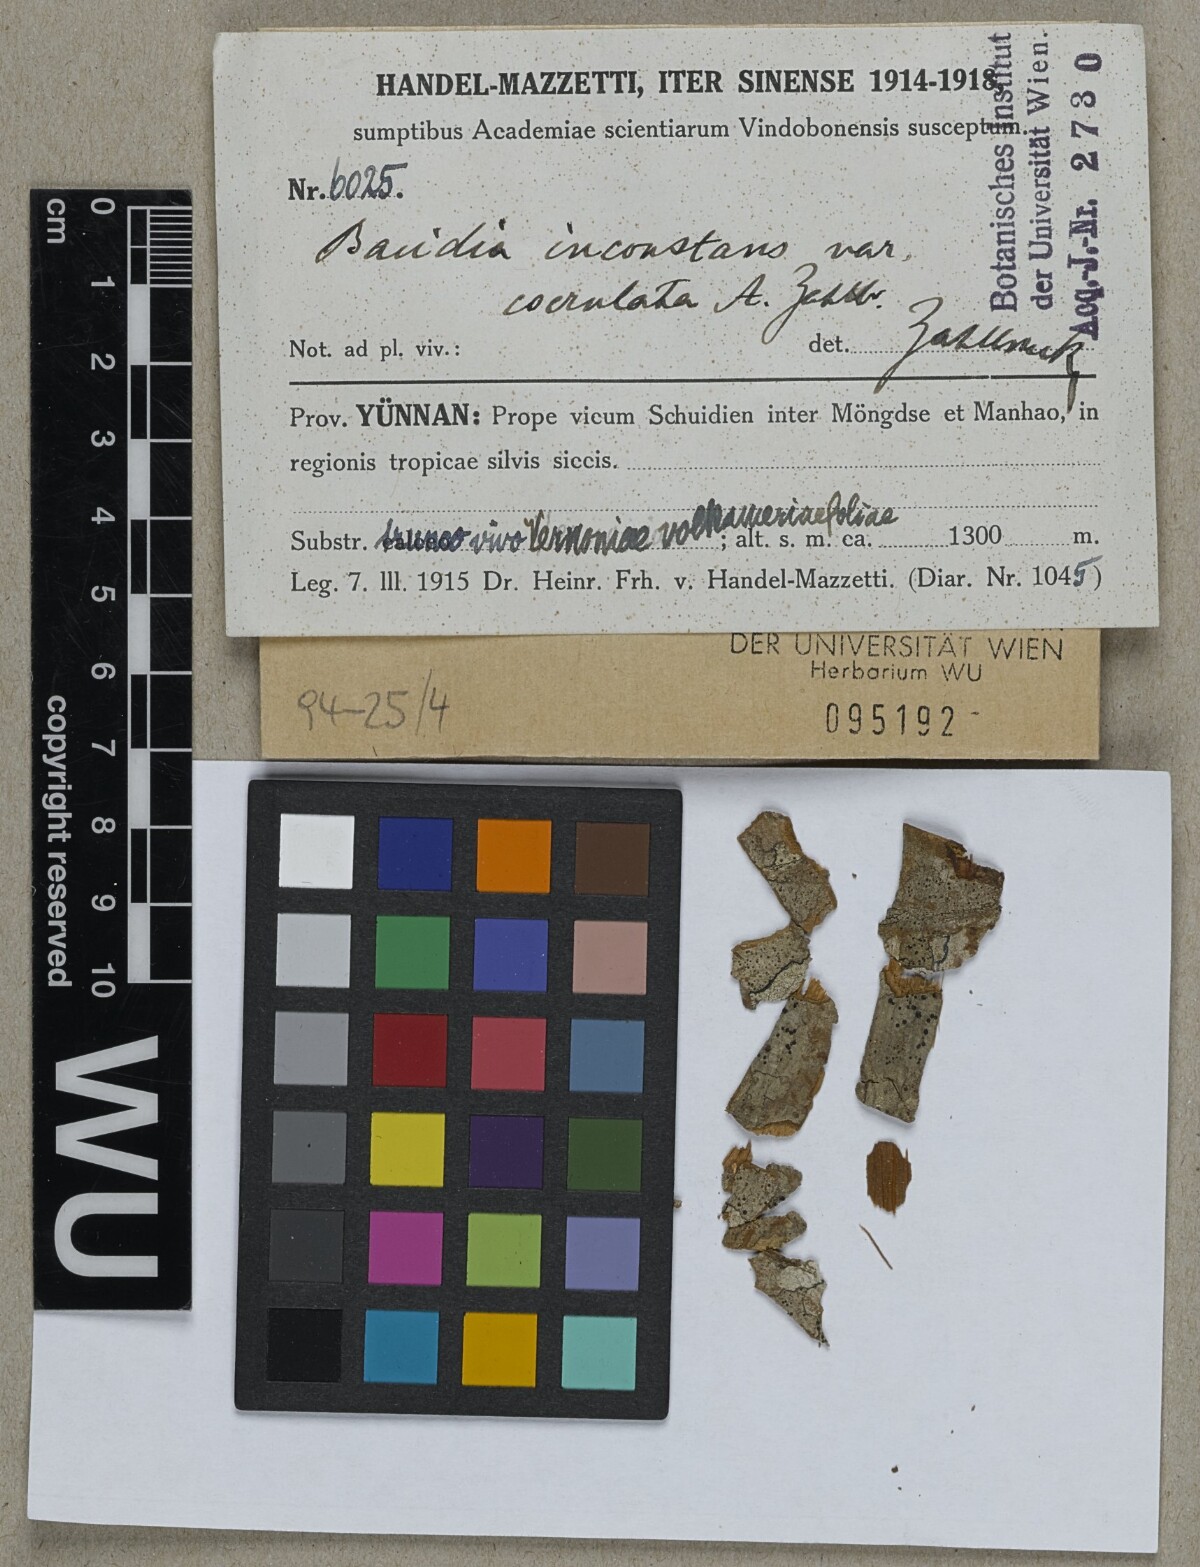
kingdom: Fungi
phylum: Ascomycota
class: Lecanoromycetes
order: Lecanorales
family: Ramalinaceae
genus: Bacidia
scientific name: Bacidia
